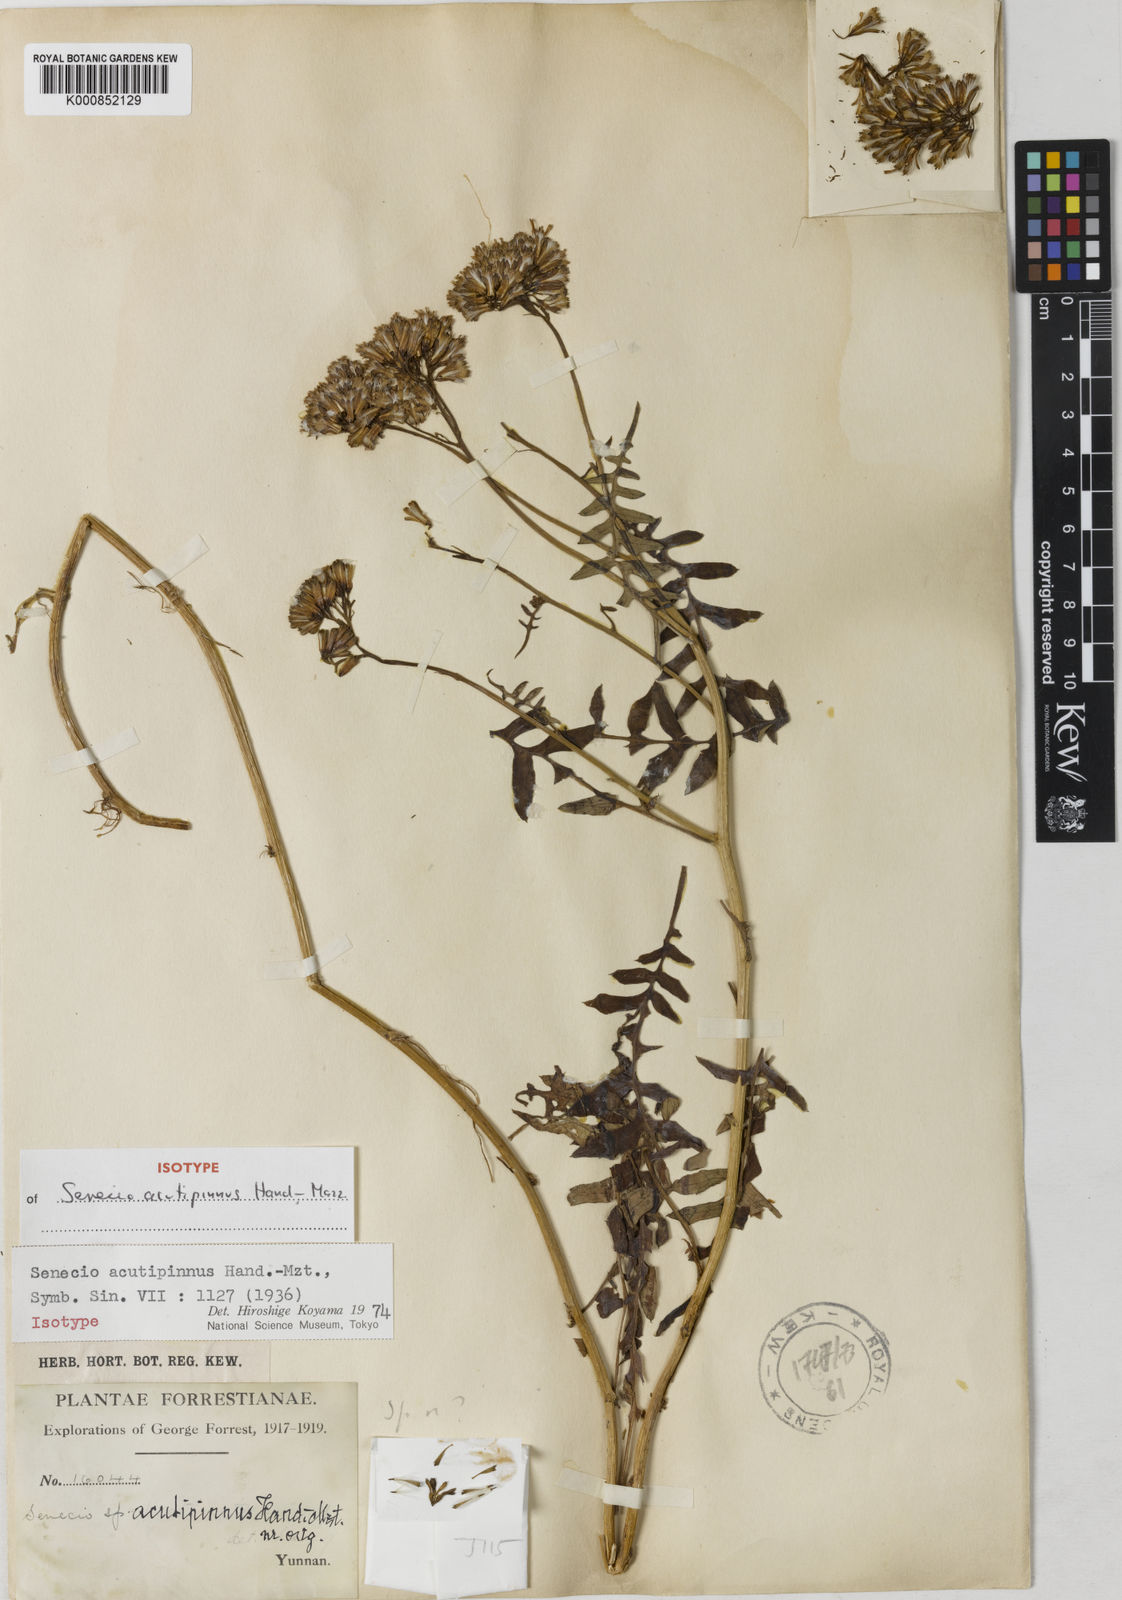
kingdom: Plantae
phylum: Tracheophyta
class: Magnoliopsida
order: Asterales
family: Asteraceae
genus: Jacobaea
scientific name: Jacobaea acutipinna
